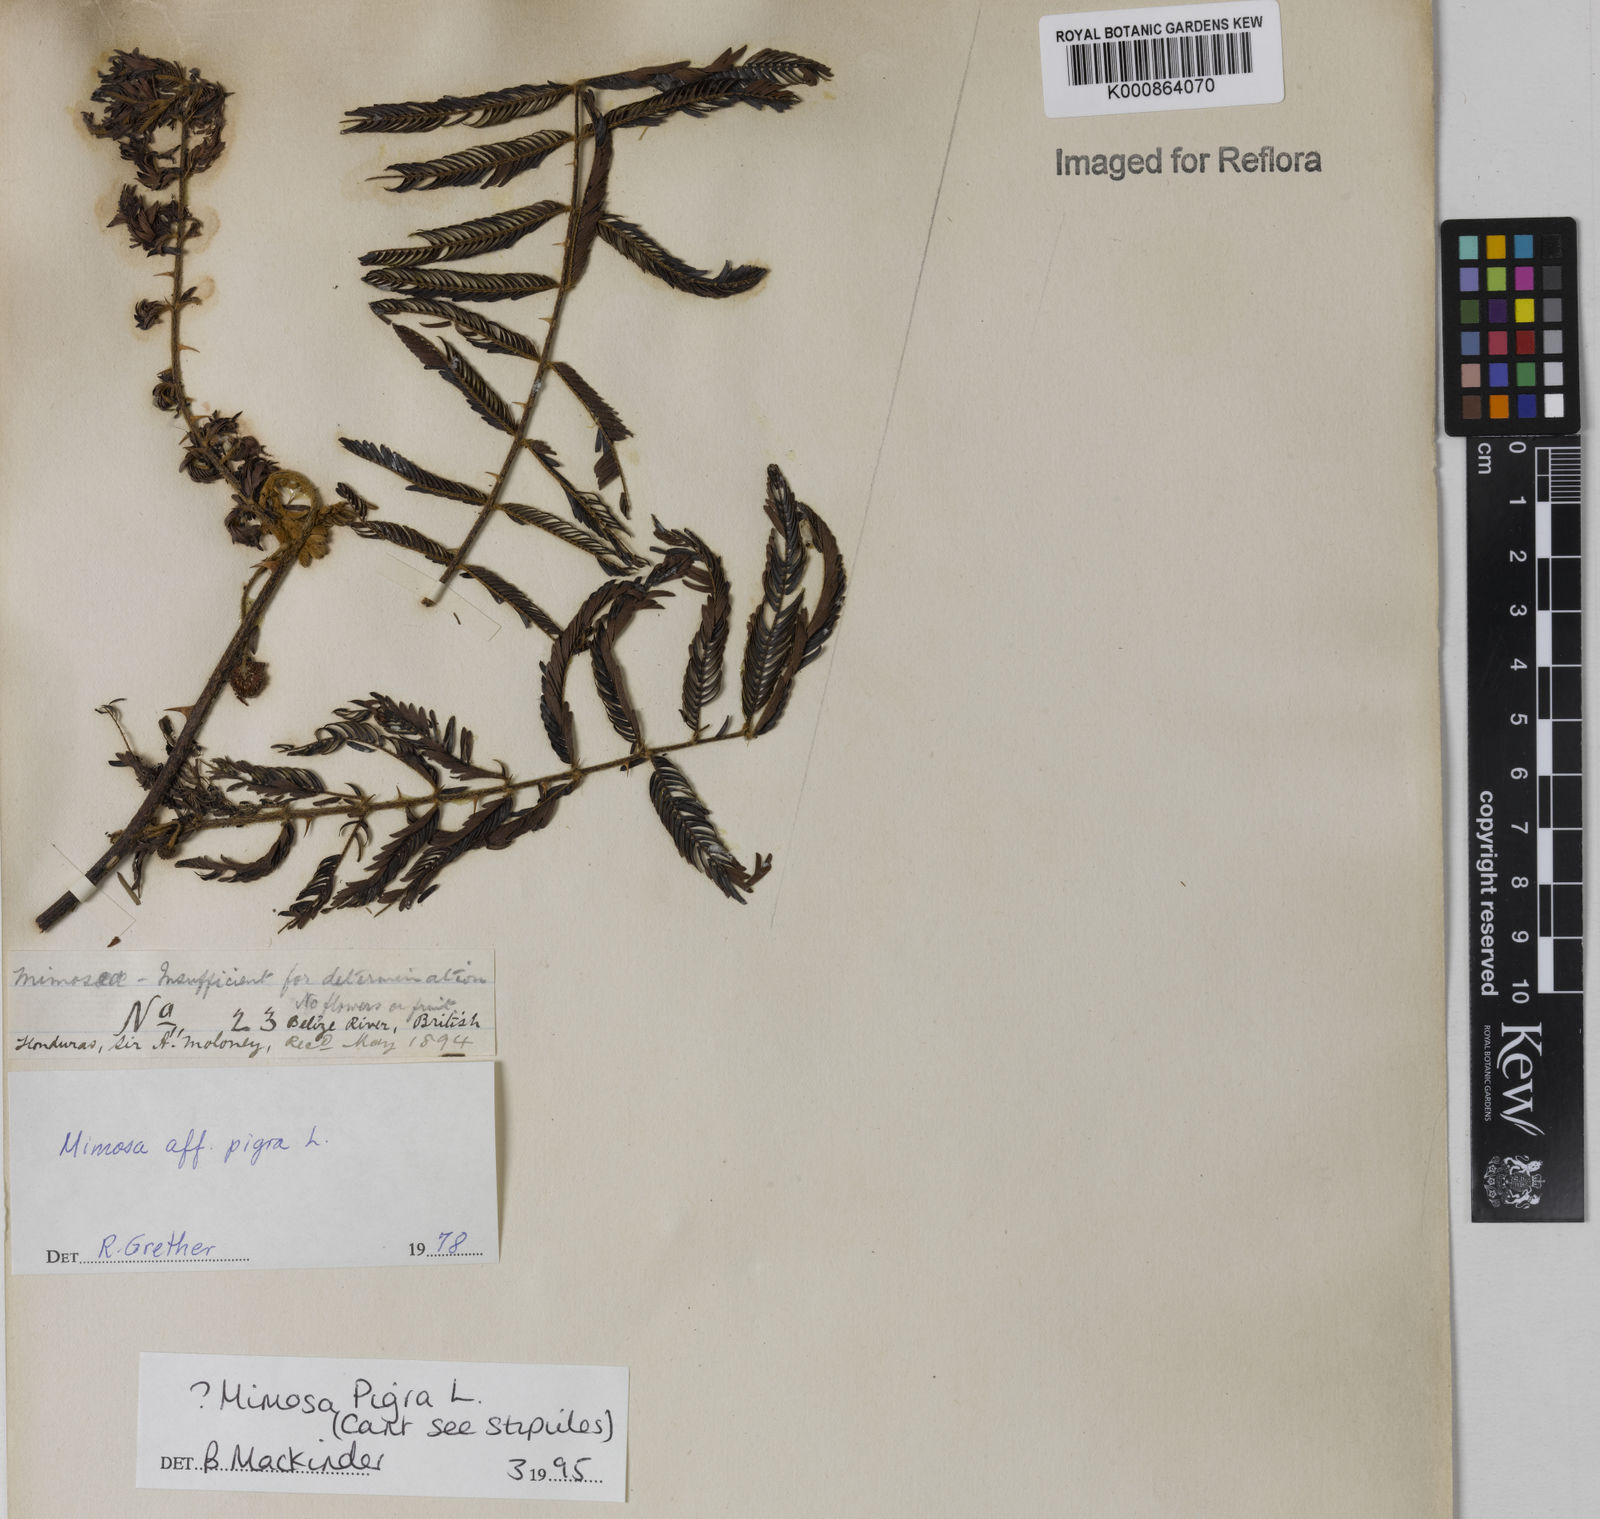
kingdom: Plantae
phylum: Tracheophyta
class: Magnoliopsida
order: Fabales
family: Fabaceae
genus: Mimosa
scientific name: Mimosa pigra
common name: Black mimosa
